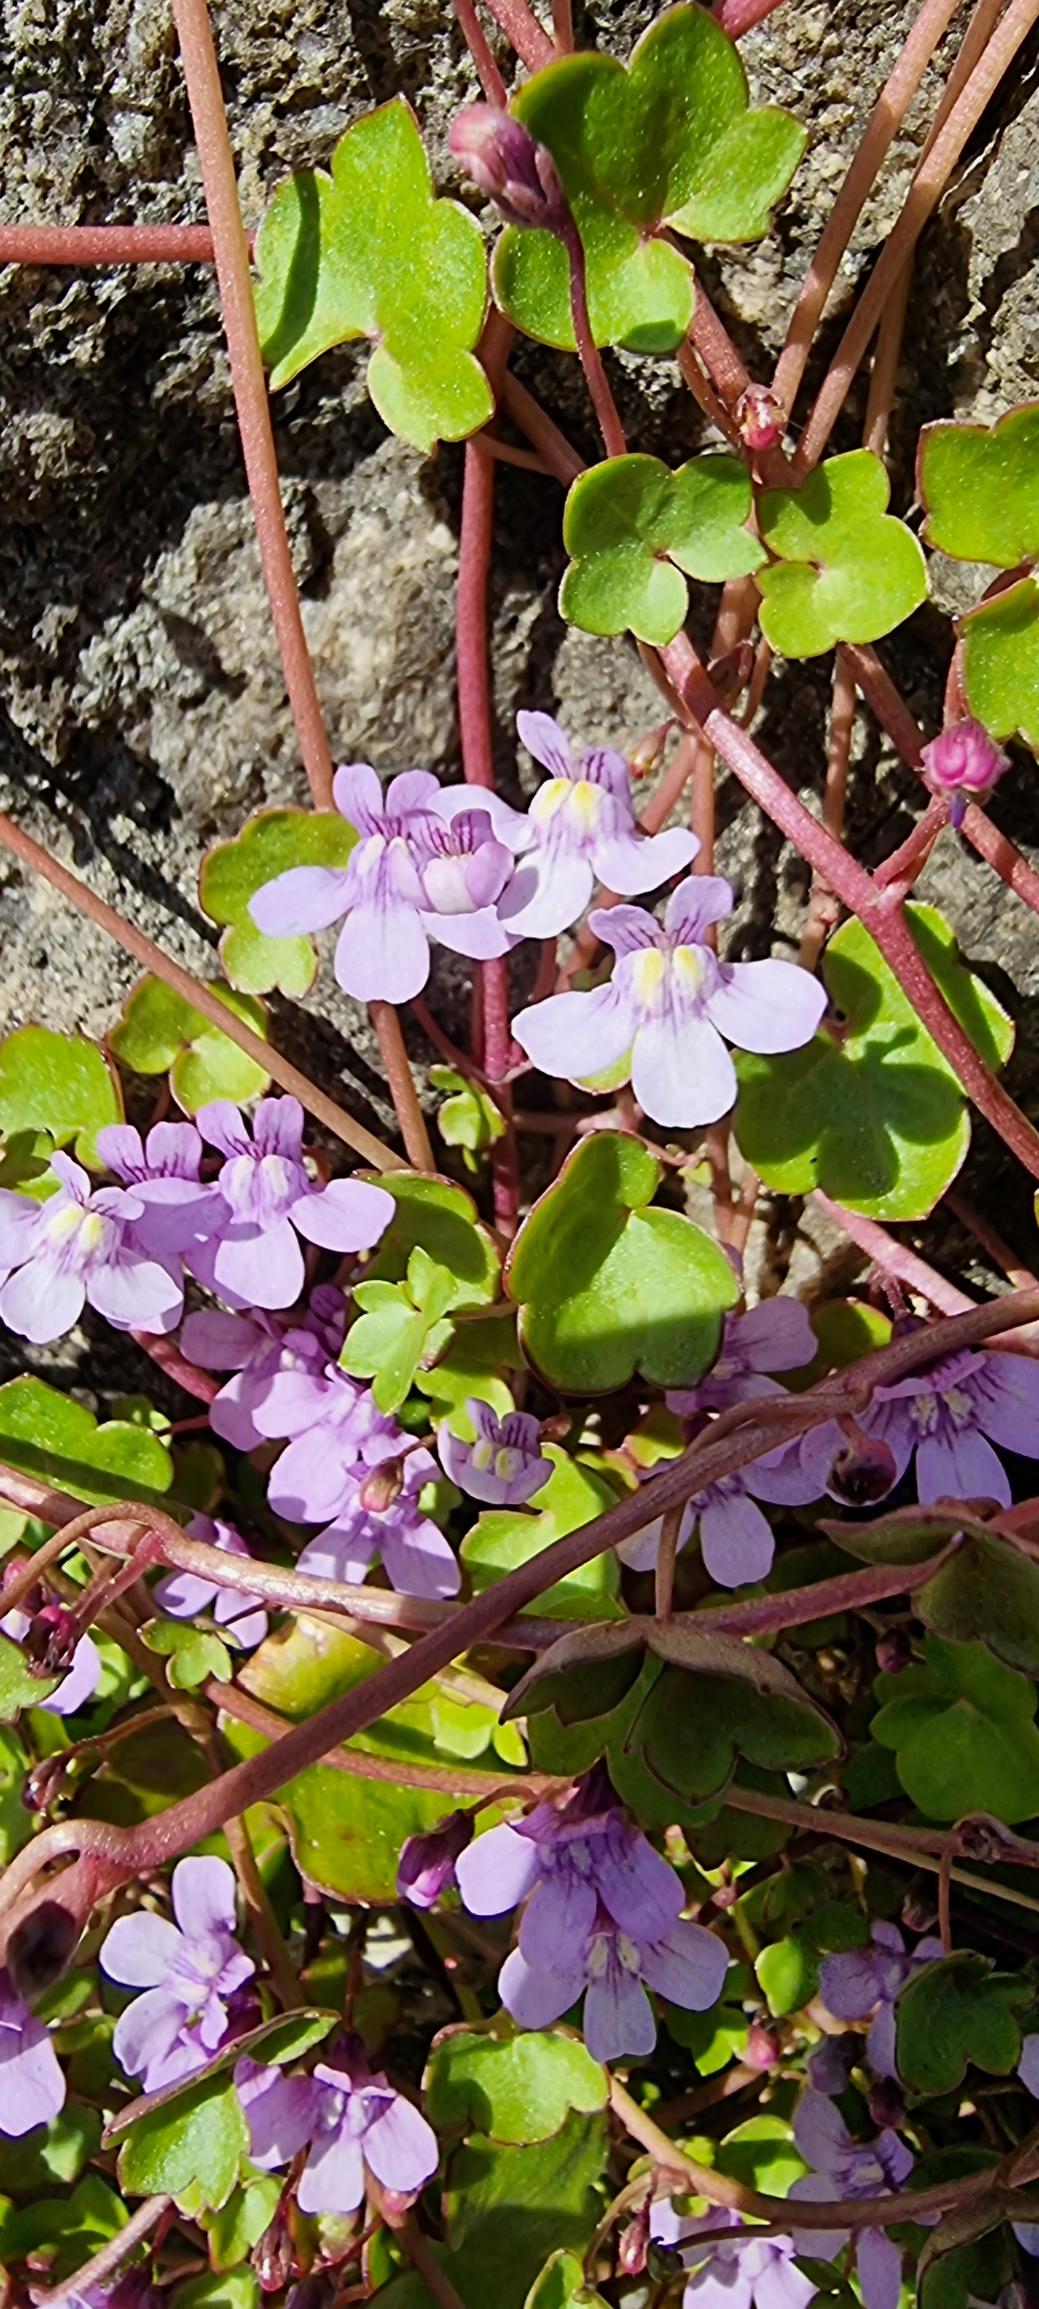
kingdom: Plantae
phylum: Tracheophyta
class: Magnoliopsida
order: Lamiales
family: Plantaginaceae
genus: Cymbalaria
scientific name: Cymbalaria muralis
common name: Vedbend-torskemund
